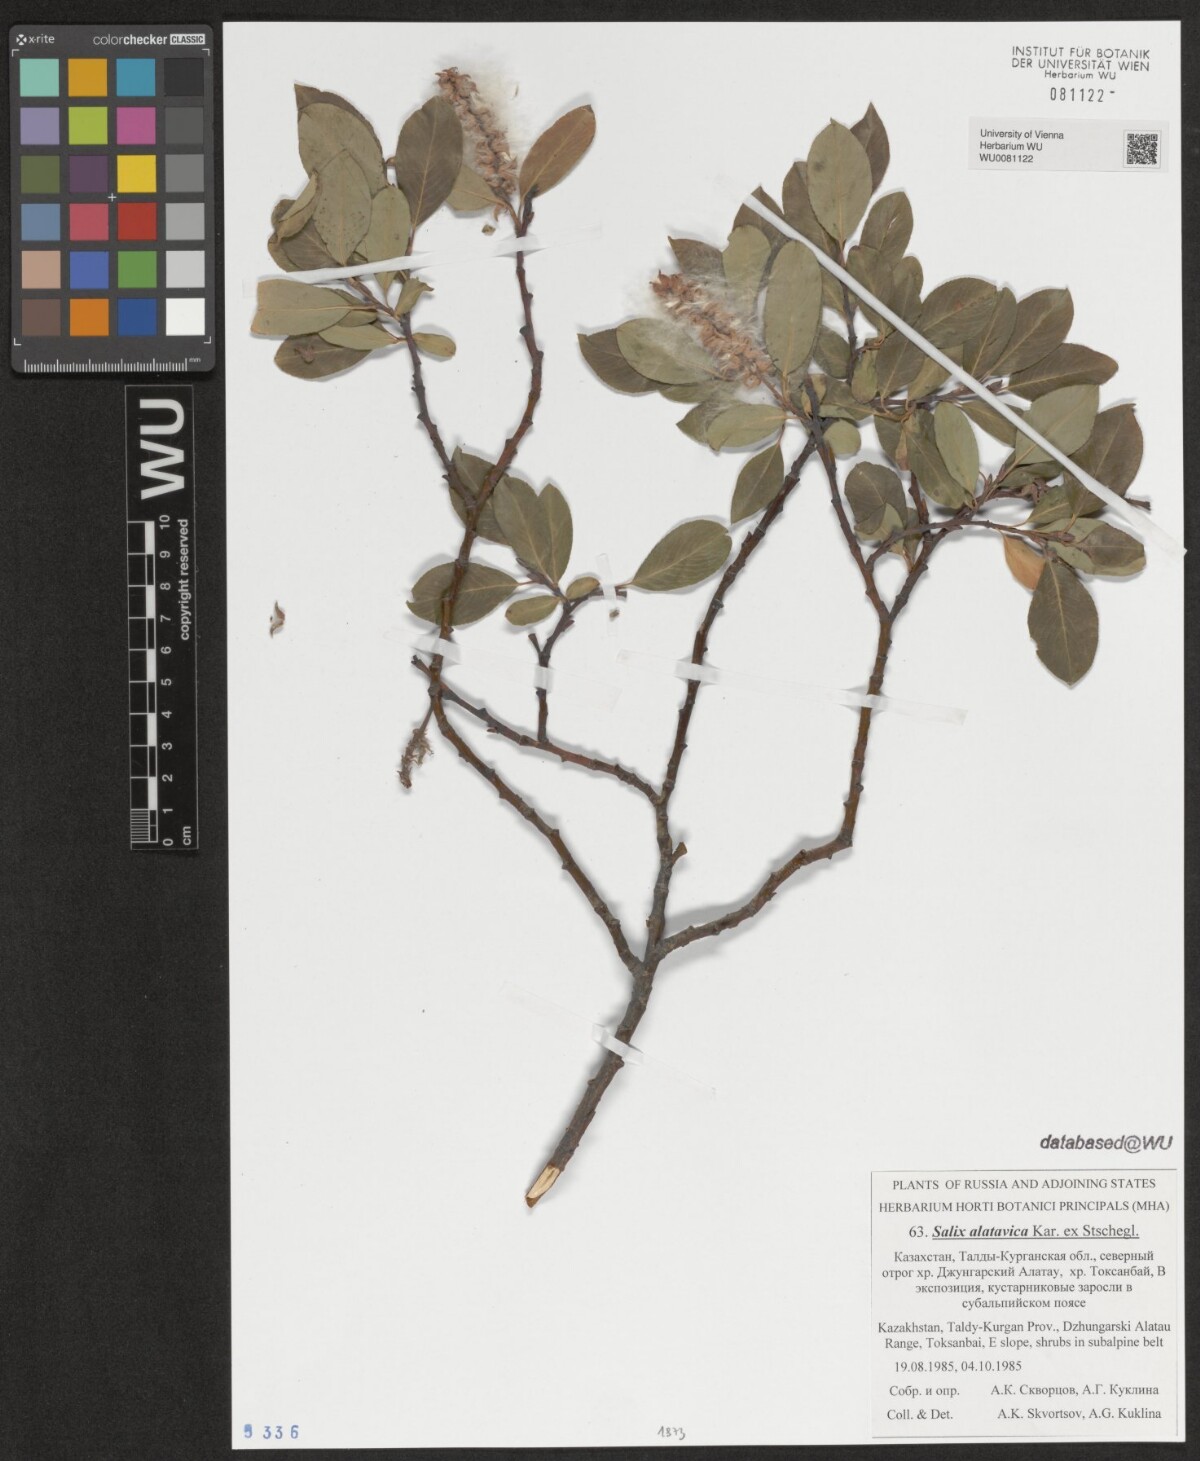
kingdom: Plantae
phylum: Tracheophyta
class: Magnoliopsida
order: Malpighiales
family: Salicaceae
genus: Salix
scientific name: Salix alatavica
